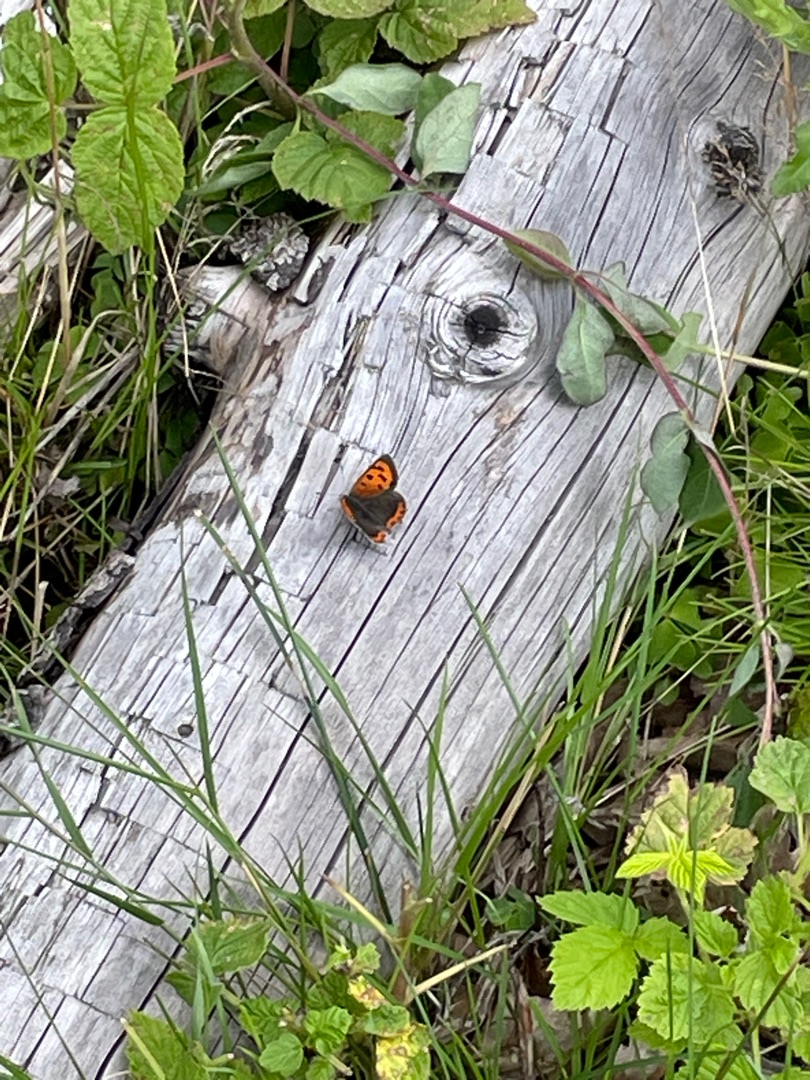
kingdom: Animalia
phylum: Arthropoda
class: Insecta
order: Lepidoptera
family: Lycaenidae
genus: Lycaena
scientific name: Lycaena phlaeas
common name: Lille ildfugl
